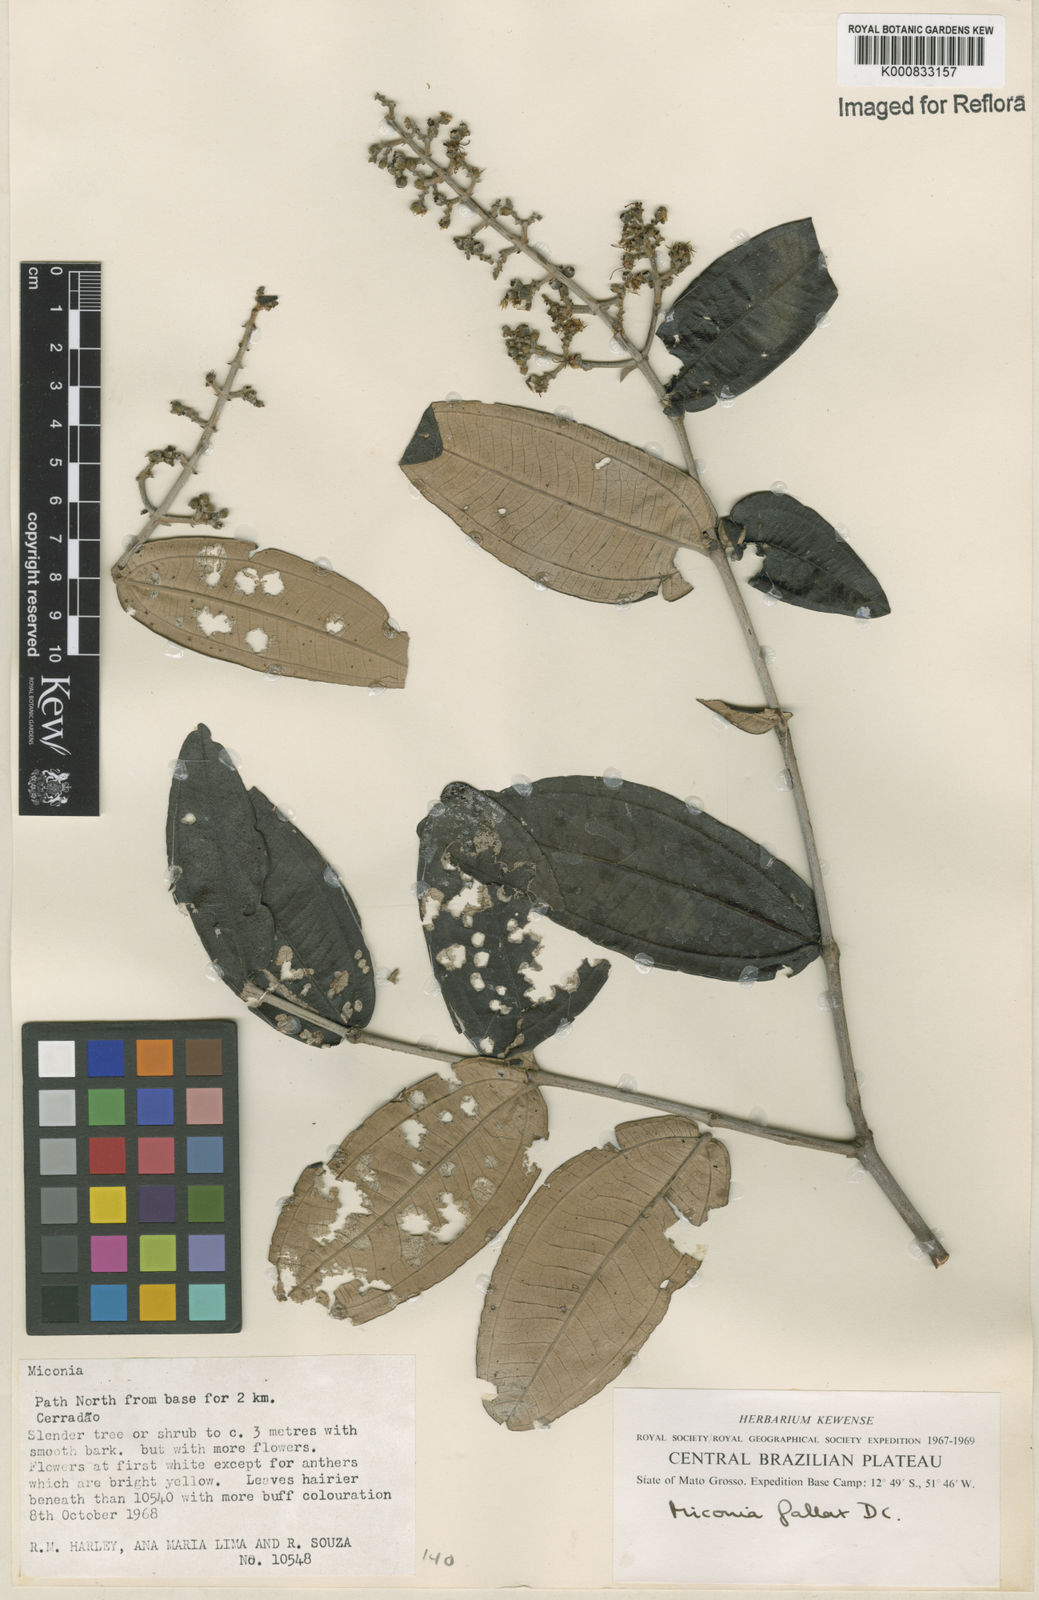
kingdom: Plantae
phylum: Tracheophyta
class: Magnoliopsida
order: Myrtales
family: Melastomataceae
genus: Miconia
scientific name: Miconia fallax
